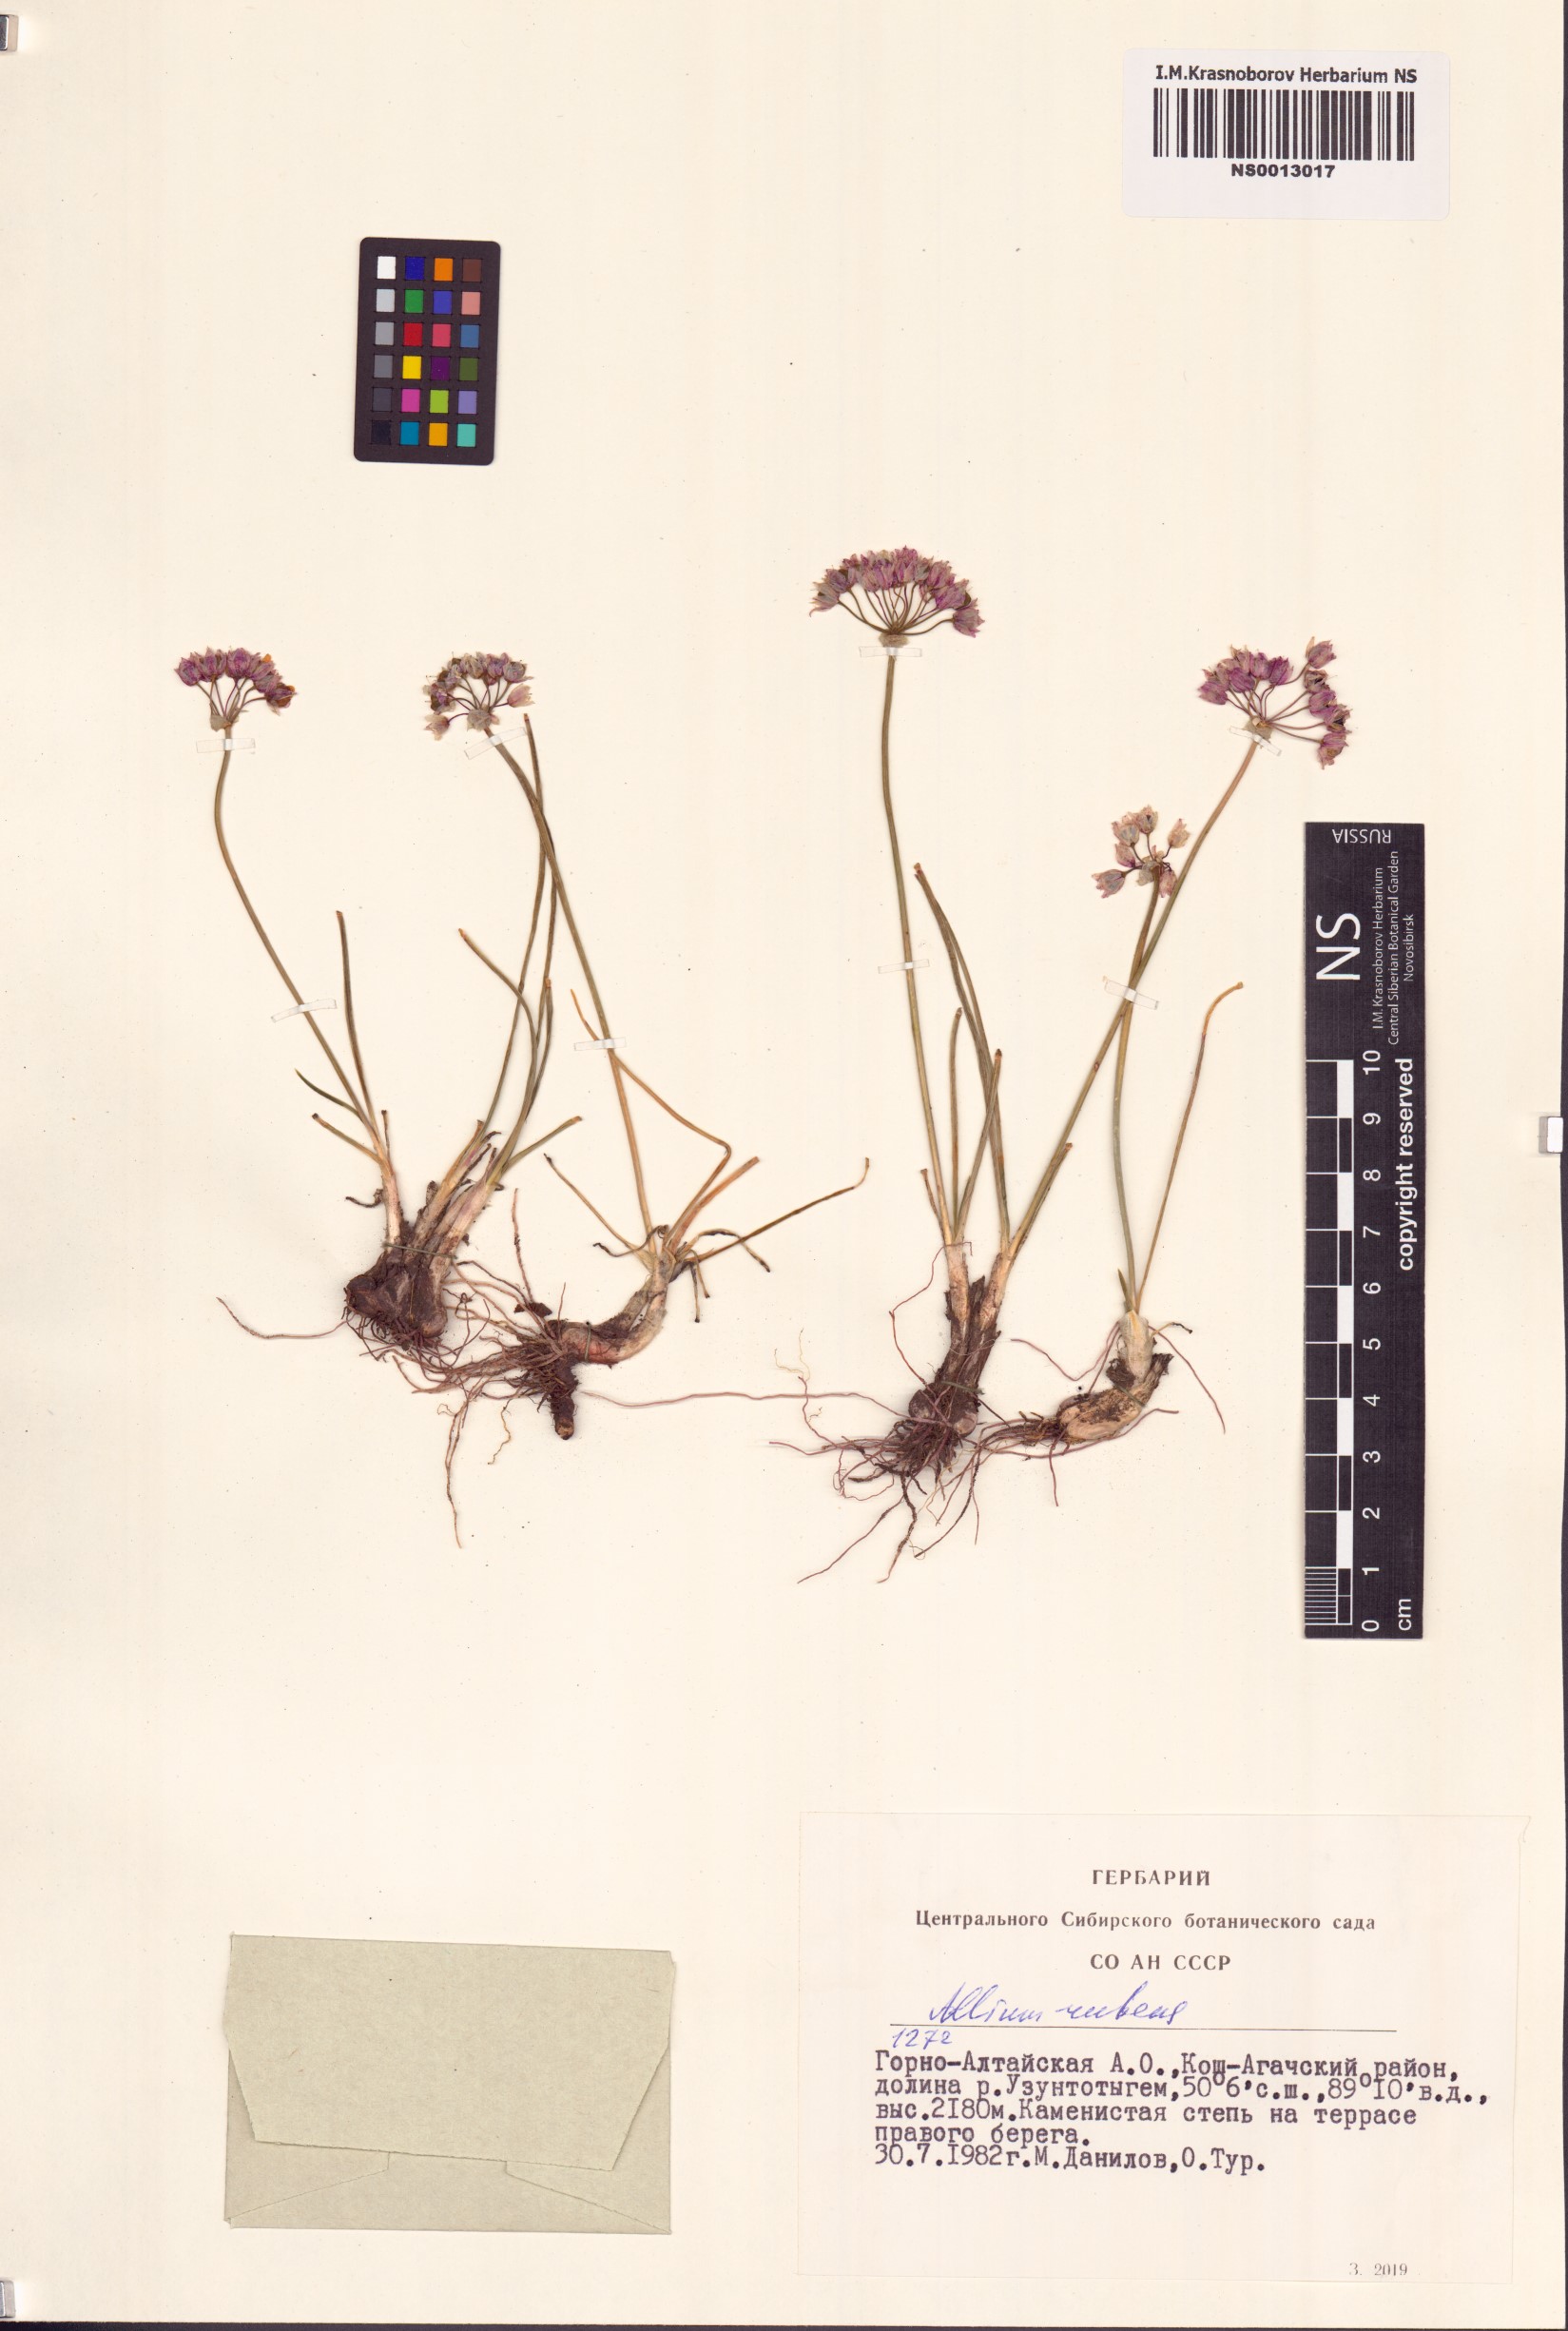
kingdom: Plantae
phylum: Tracheophyta
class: Liliopsida
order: Asparagales
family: Amaryllidaceae
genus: Allium
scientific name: Allium rubens
